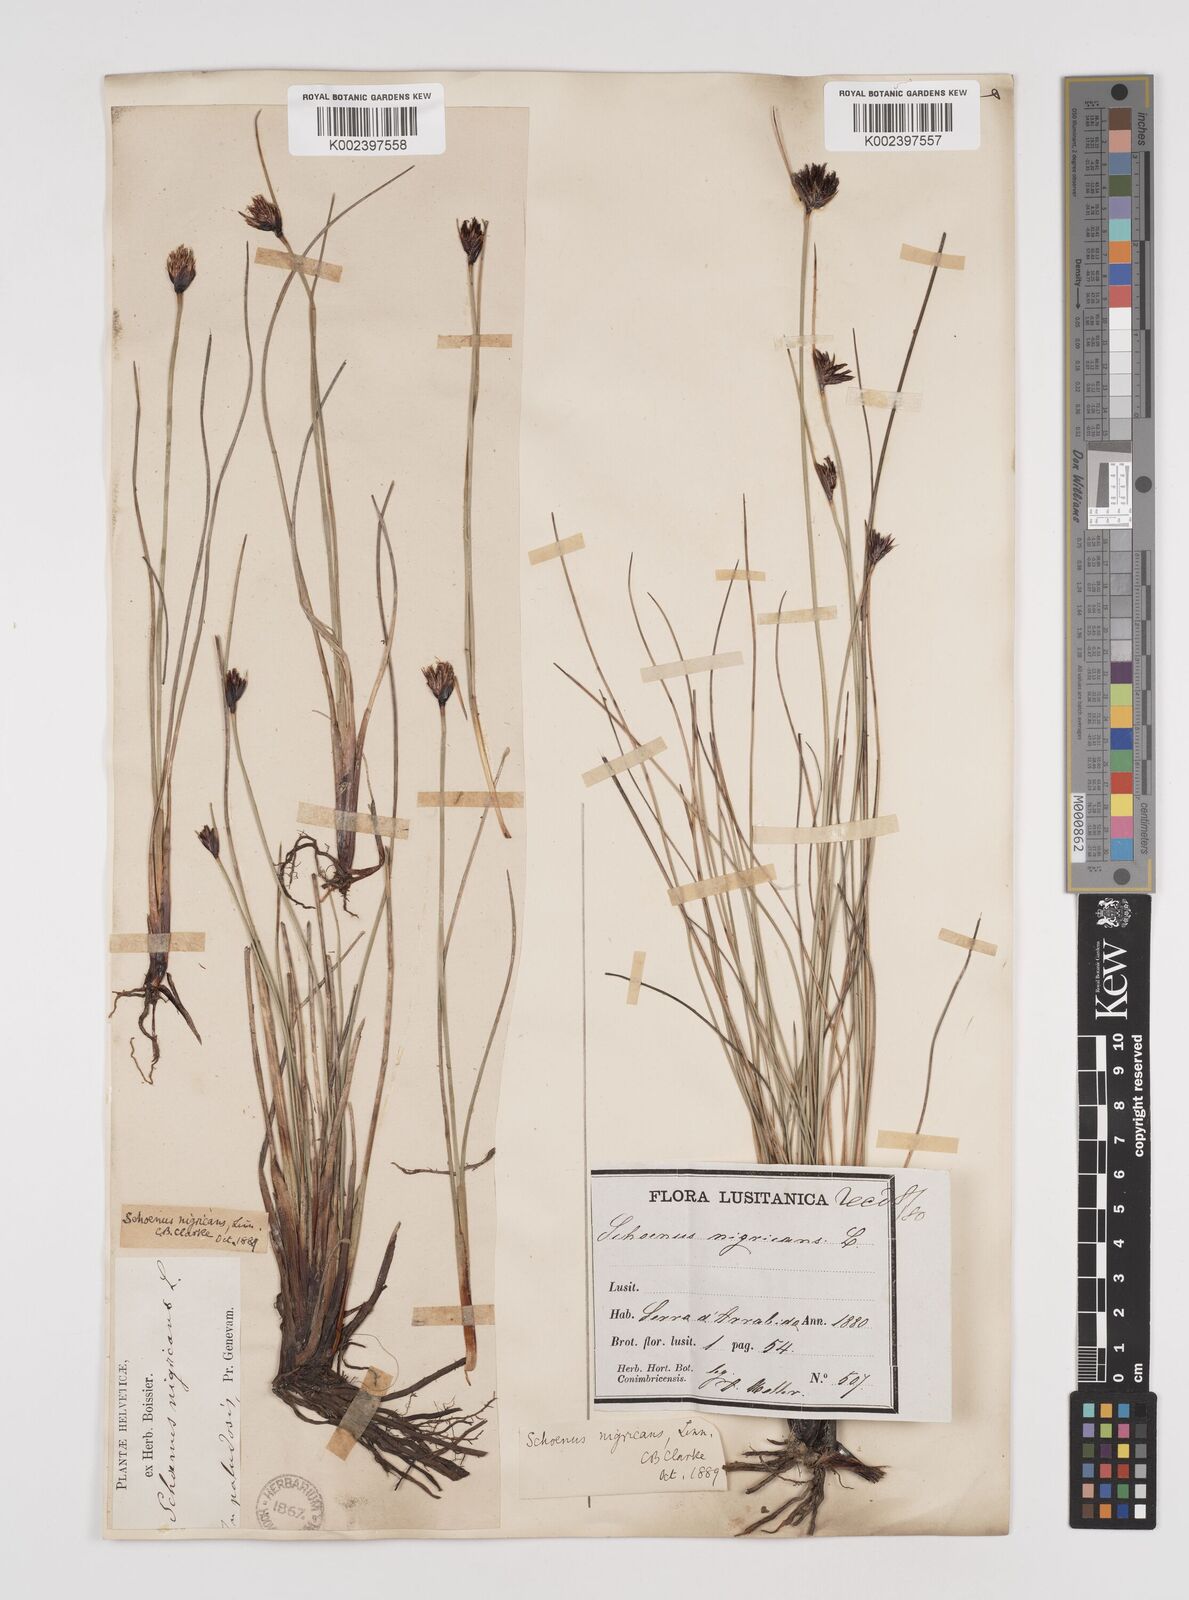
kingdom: Plantae
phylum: Tracheophyta
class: Liliopsida
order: Poales
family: Cyperaceae
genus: Schoenus
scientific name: Schoenus nigricans
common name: Black bog-rush
